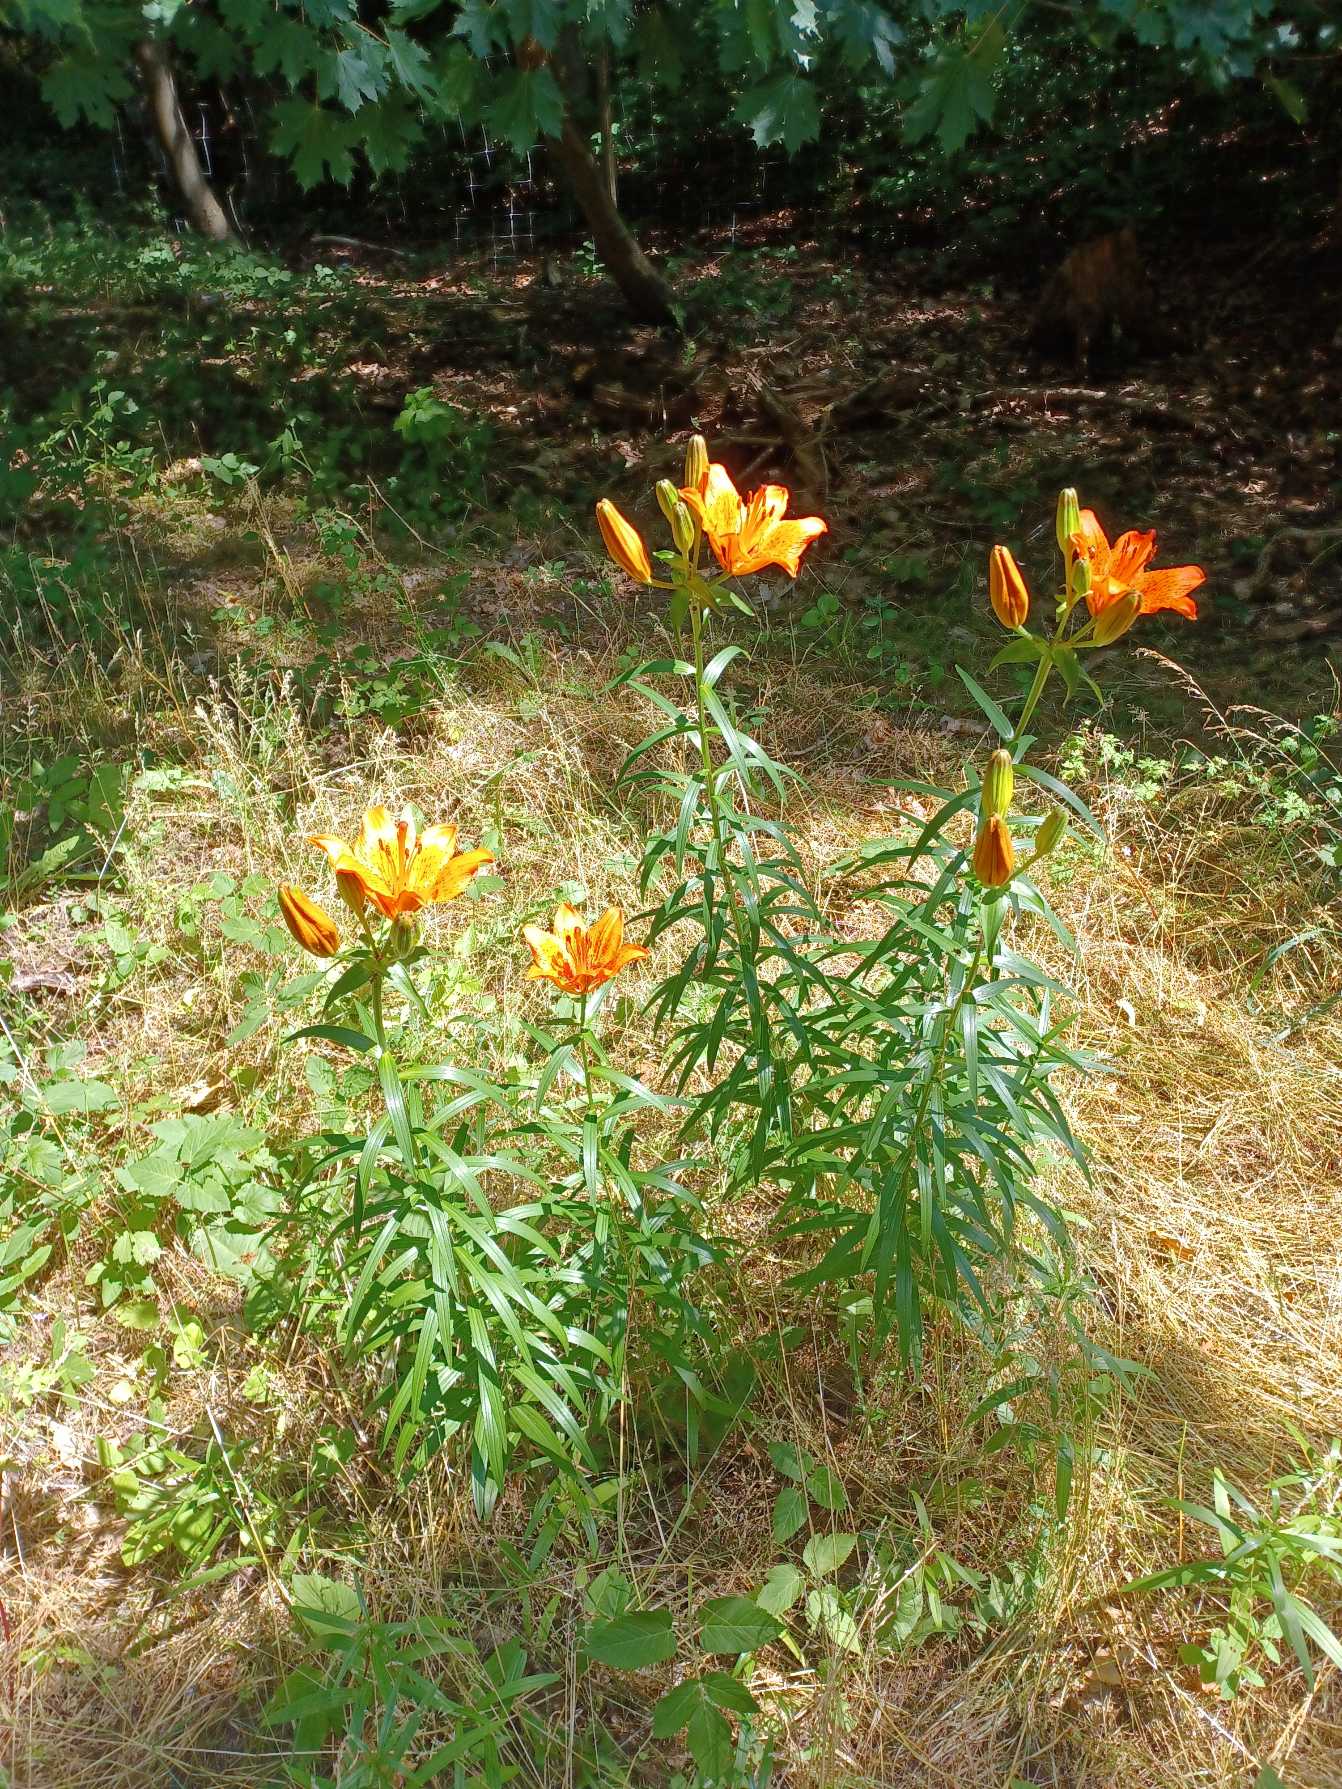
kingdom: Plantae
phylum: Tracheophyta
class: Liliopsida
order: Liliales
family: Liliaceae
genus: Lilium
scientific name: Lilium bulbiferum
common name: Brand-lilje
